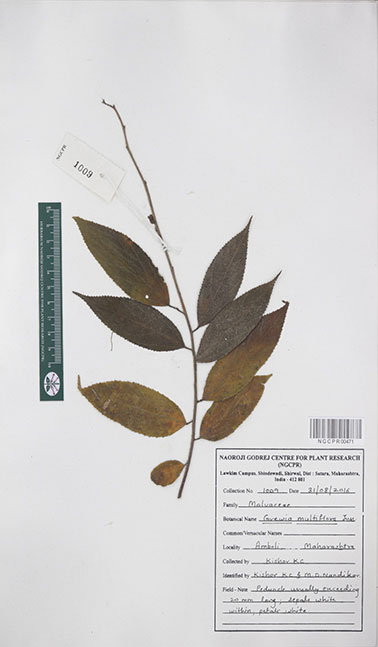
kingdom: Plantae
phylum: Tracheophyta
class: Magnoliopsida
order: Malvales
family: Malvaceae
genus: Grewia
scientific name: Grewia multiflora
